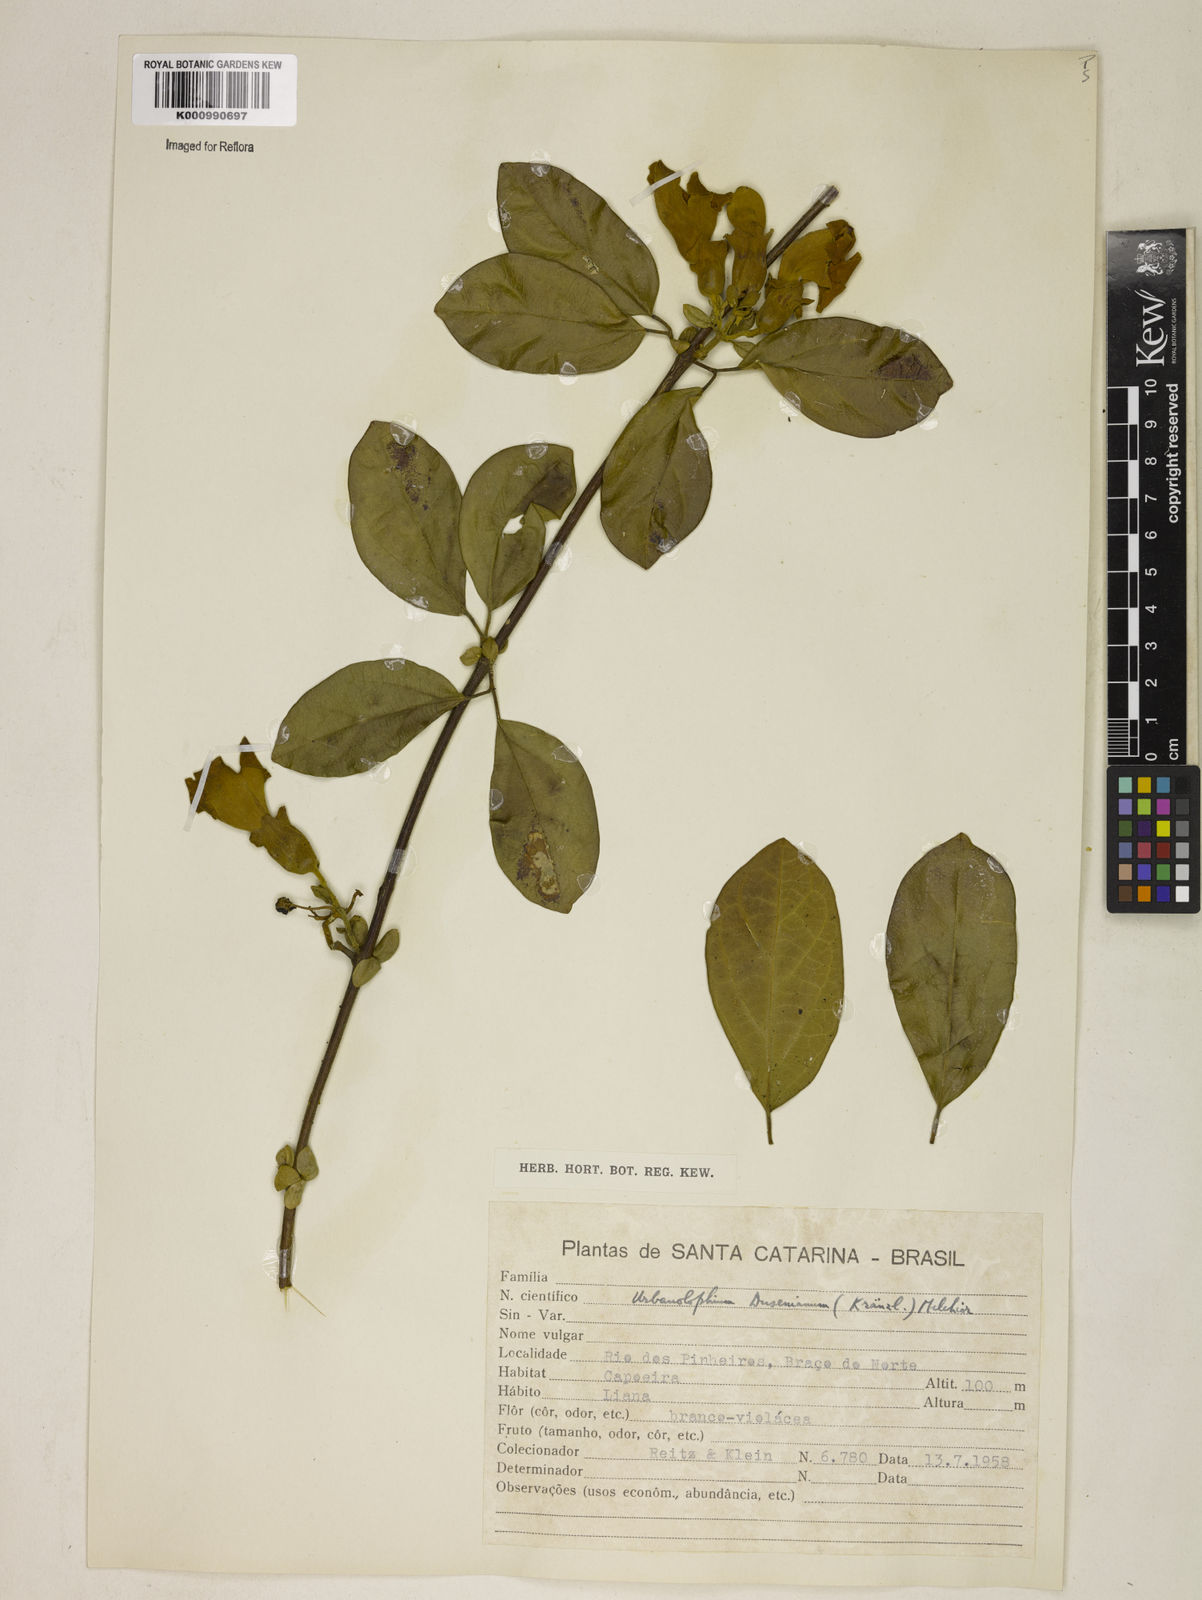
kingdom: Plantae
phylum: Tracheophyta
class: Magnoliopsida
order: Lamiales
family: Bignoniaceae
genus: Amphilophium
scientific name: Amphilophium dusenianum
